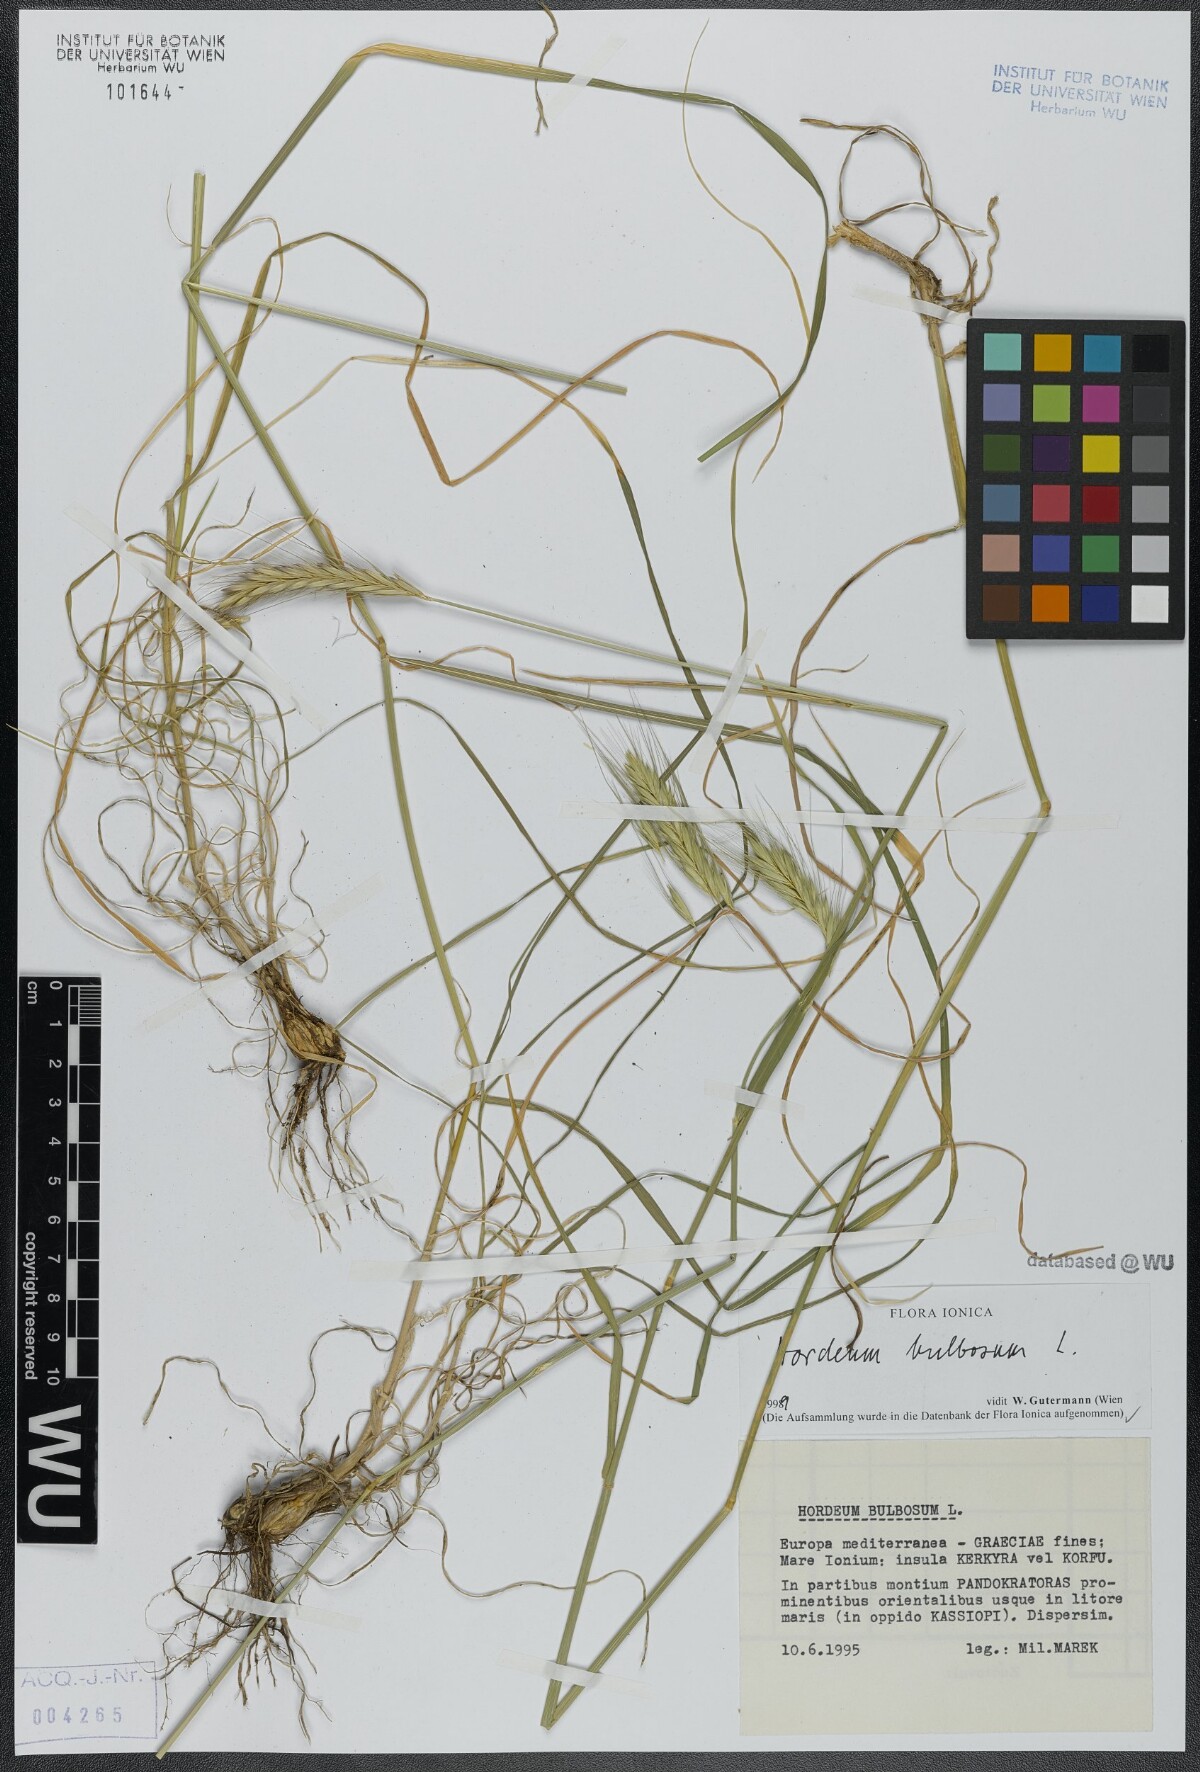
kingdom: Plantae
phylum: Tracheophyta
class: Liliopsida
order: Poales
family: Poaceae
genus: Hordeum
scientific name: Hordeum bulbosum
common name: Bulbous barley
